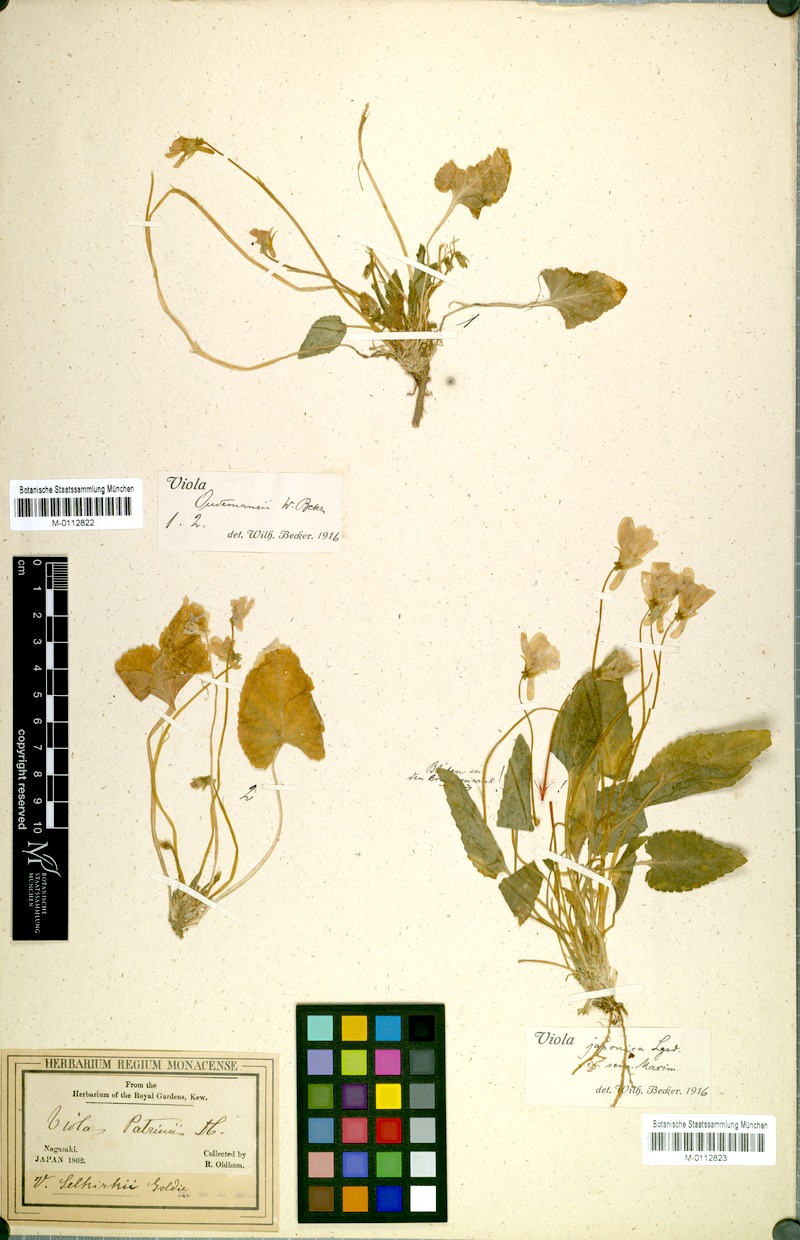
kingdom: Plantae
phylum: Tracheophyta
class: Magnoliopsida
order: Malpighiales
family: Violaceae
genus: Viola
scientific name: Viola phalacrocarpa
